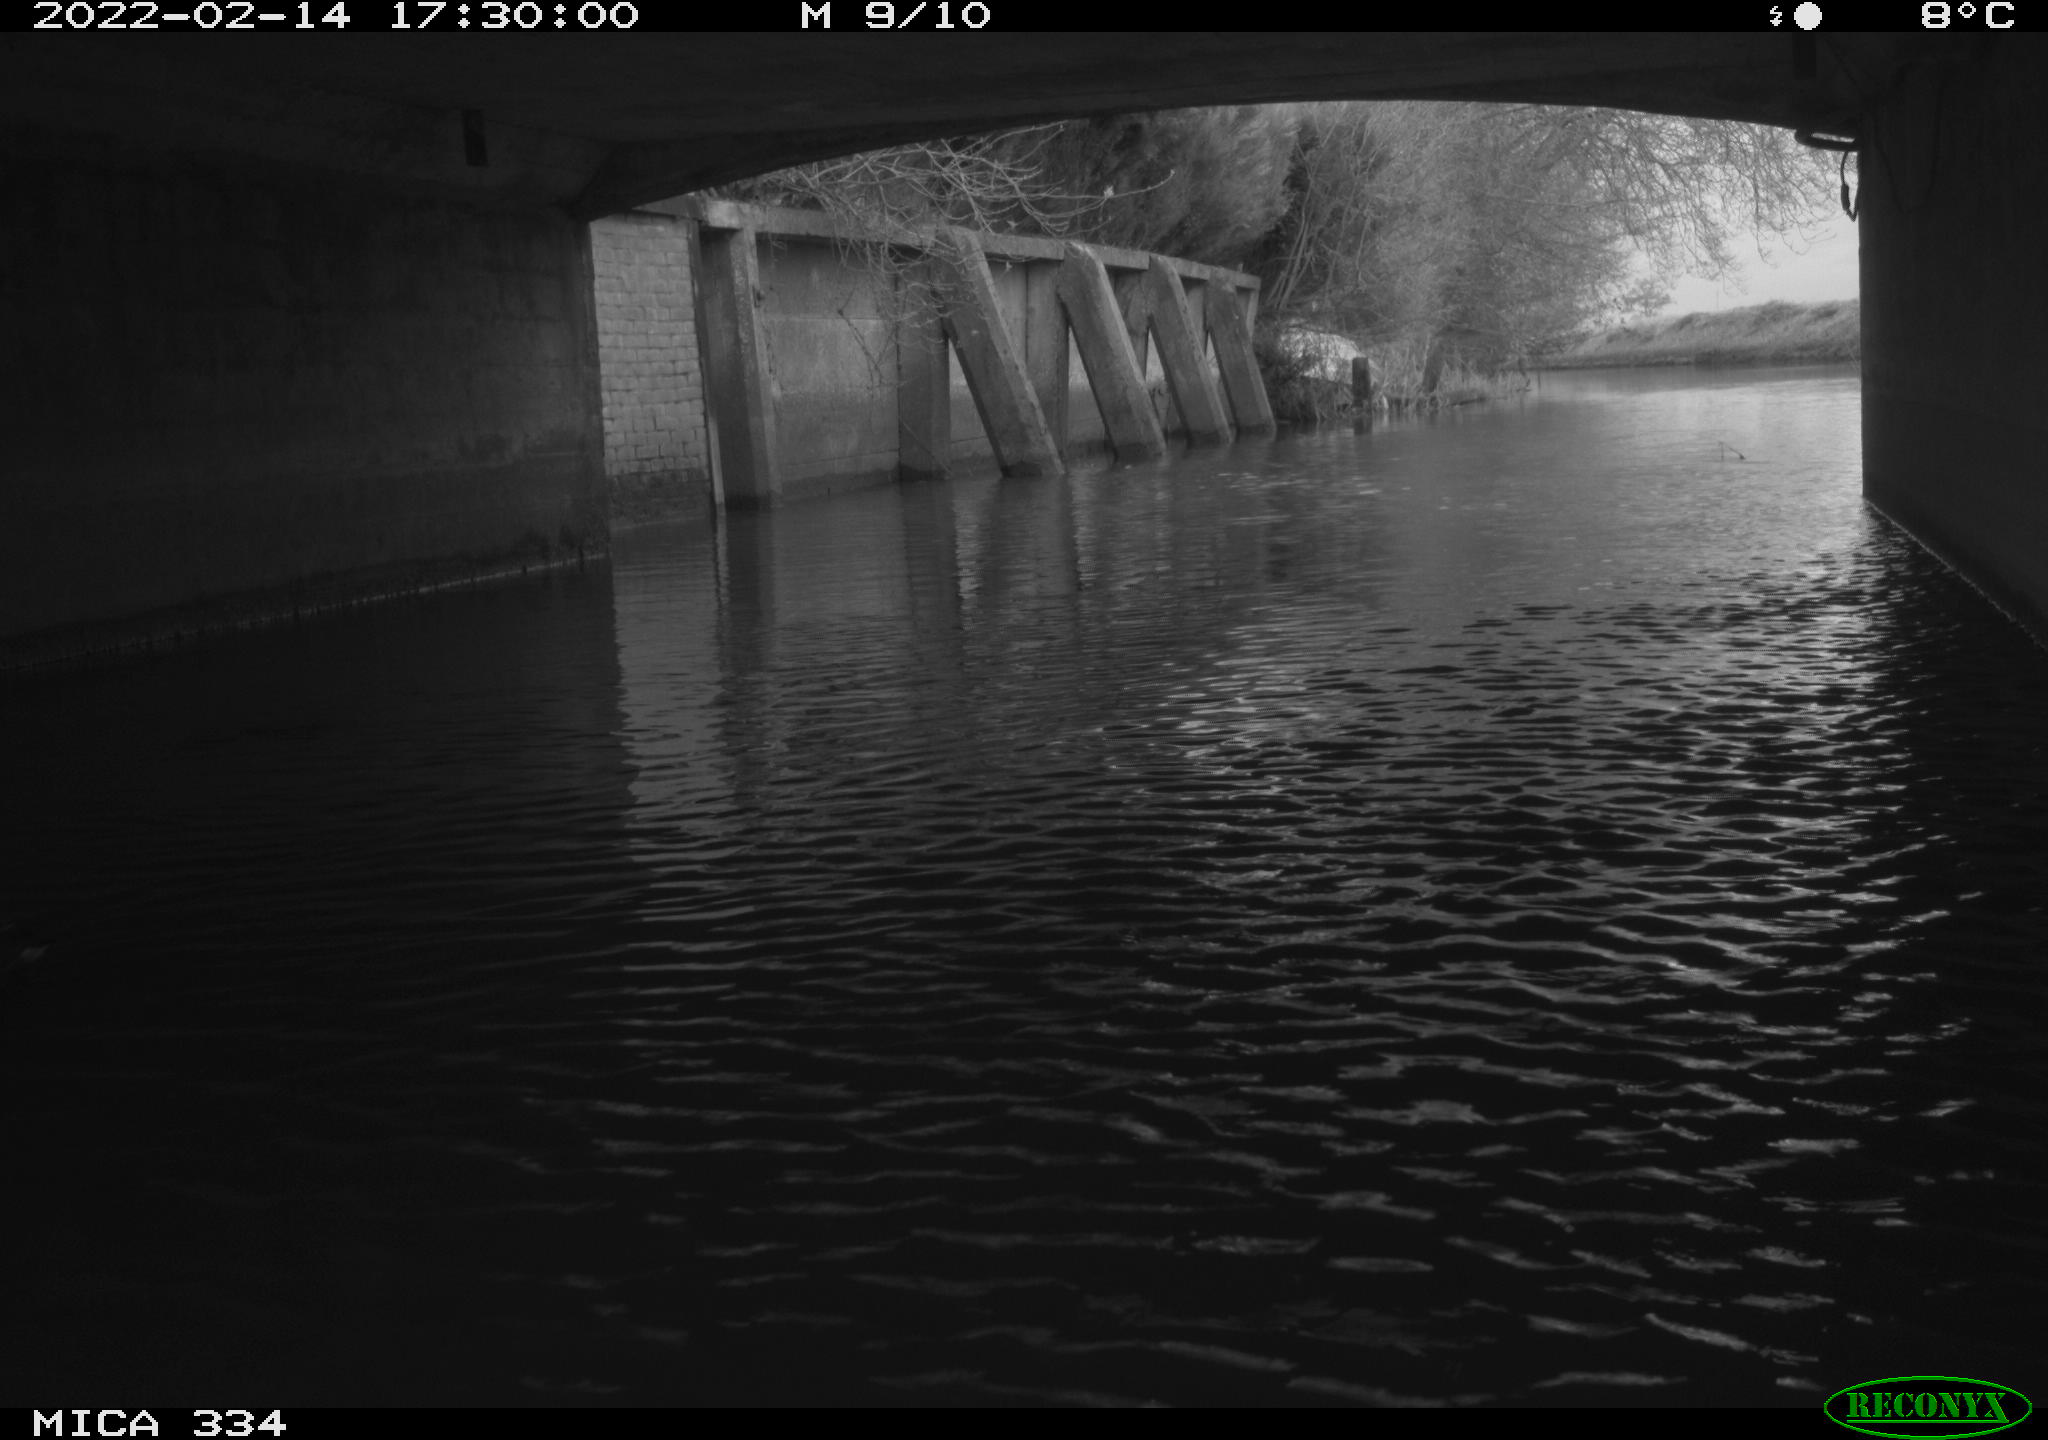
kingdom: Animalia
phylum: Chordata
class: Aves
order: Gruiformes
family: Rallidae
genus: Fulica
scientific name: Fulica atra
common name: Eurasian coot
